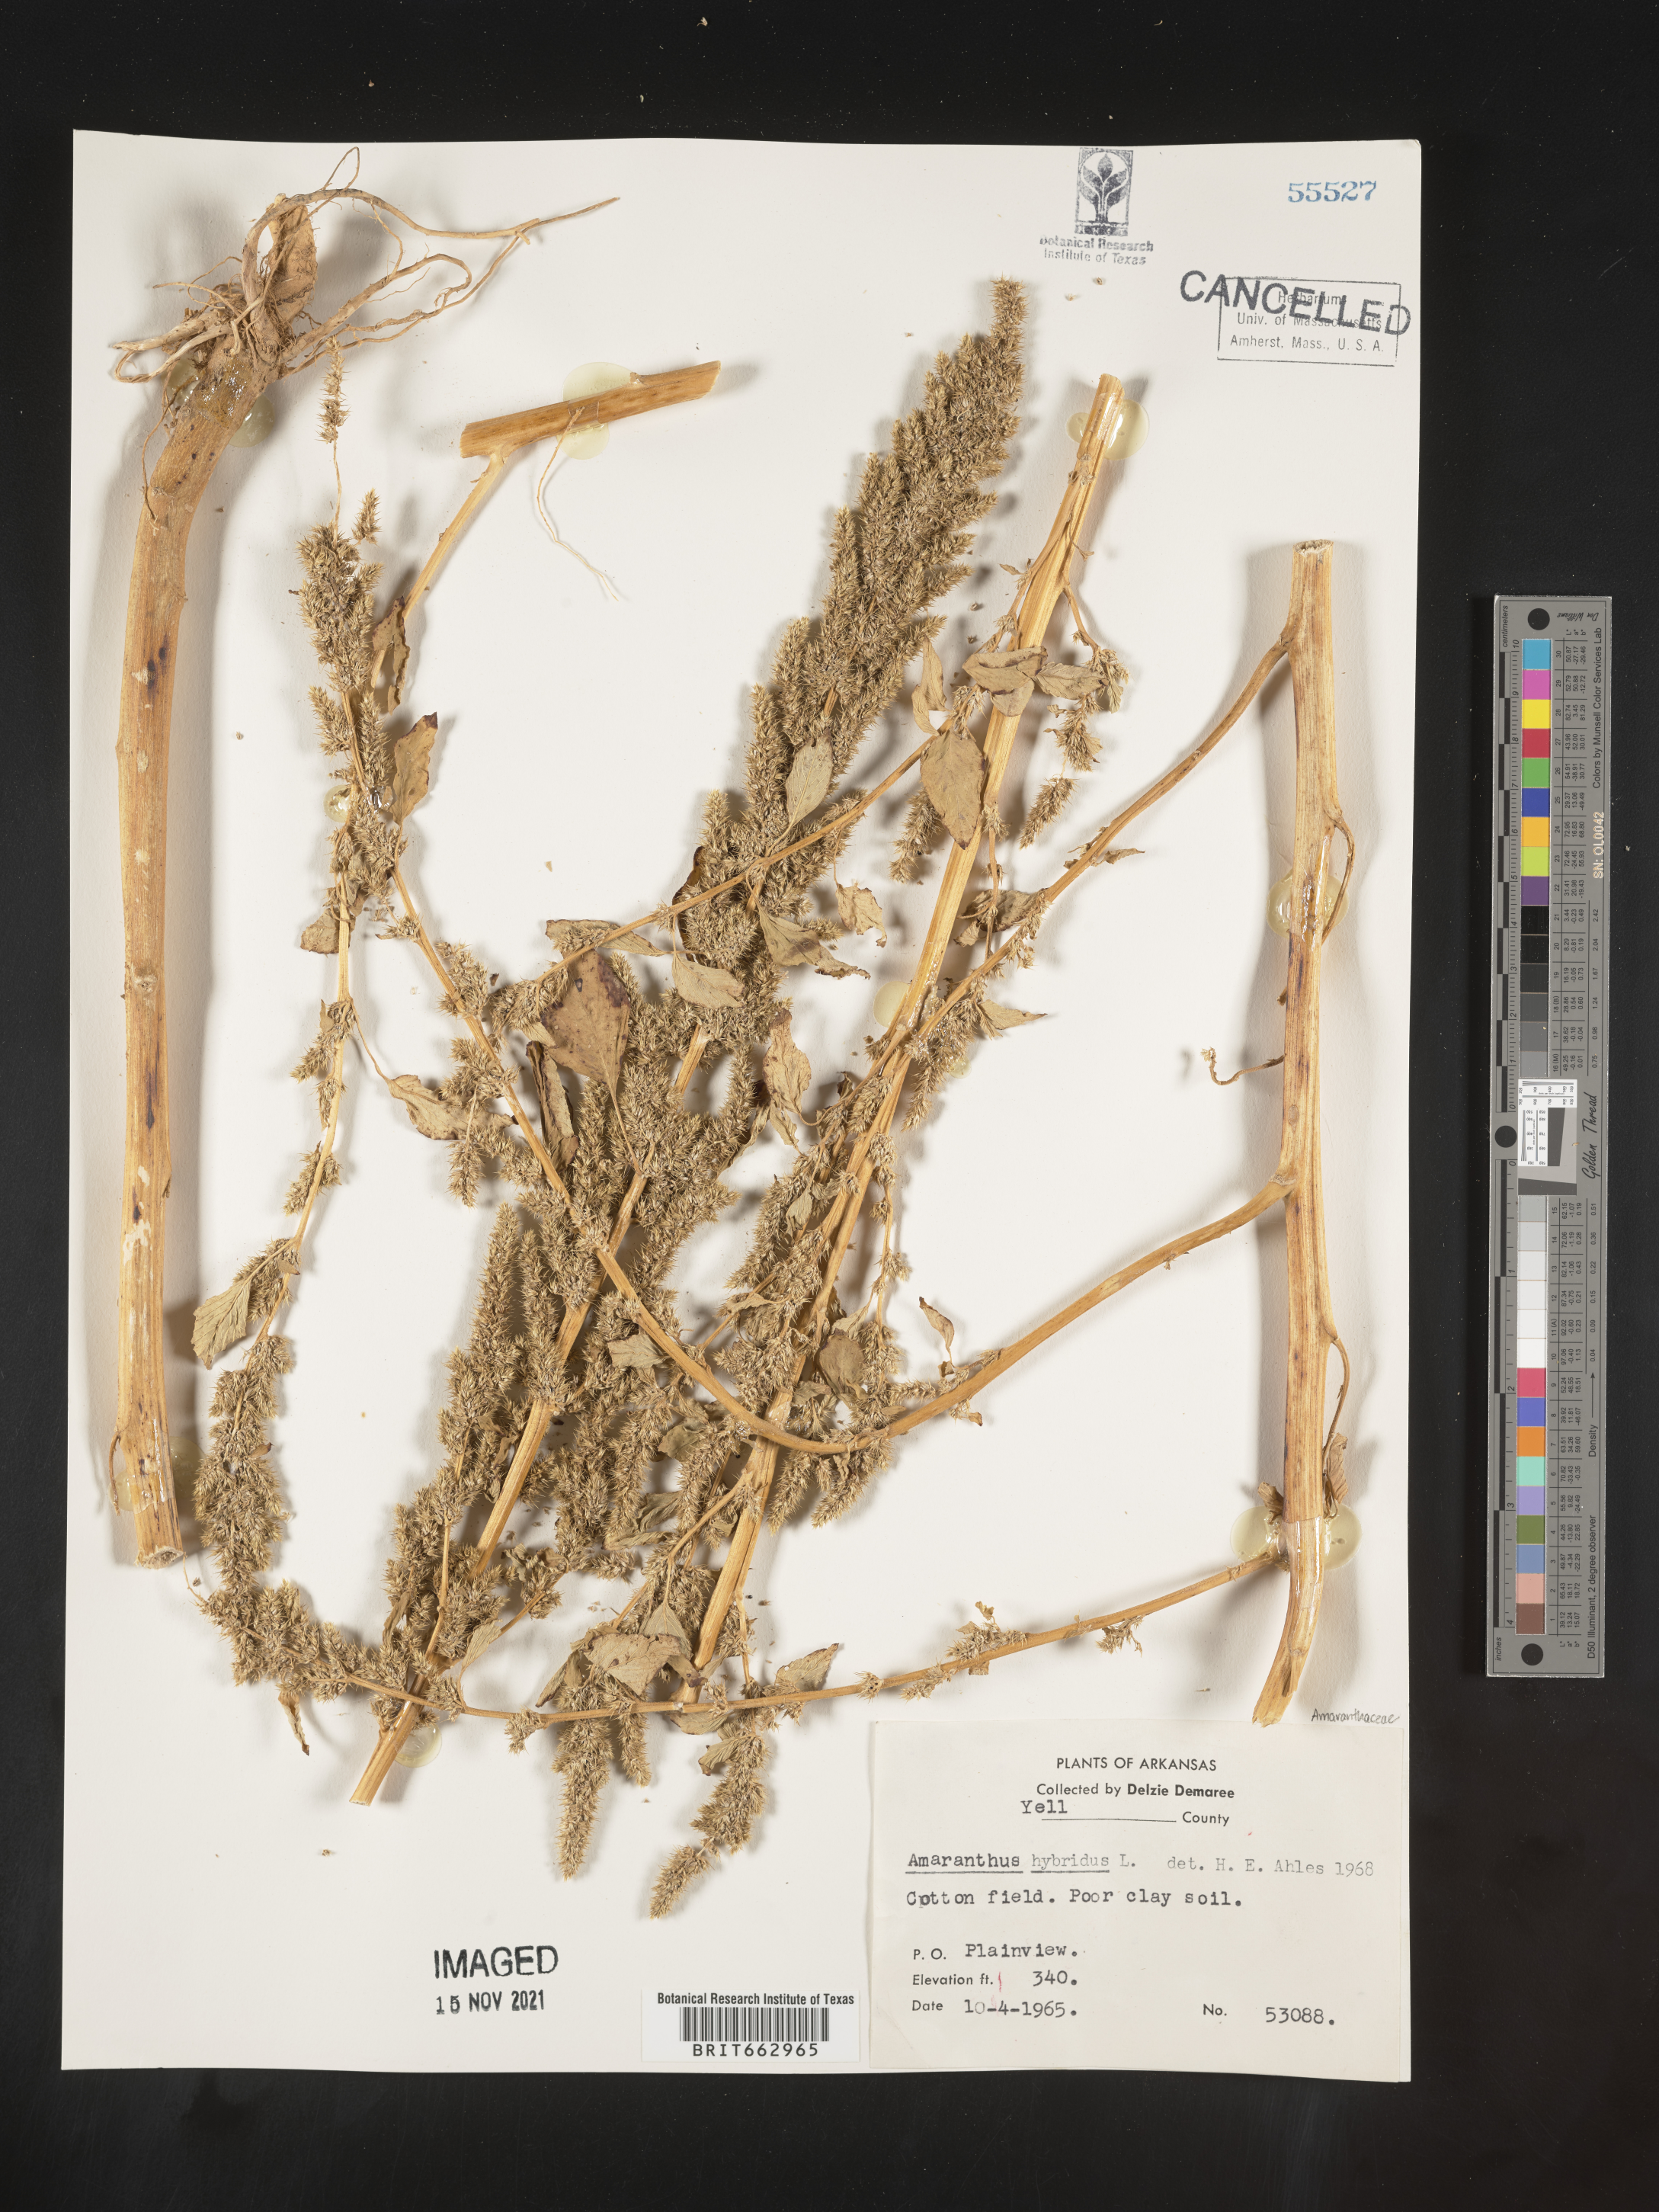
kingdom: Plantae
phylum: Tracheophyta
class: Magnoliopsida
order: Caryophyllales
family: Amaranthaceae
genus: Amaranthus
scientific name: Amaranthus hybridus
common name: Green amaranth
